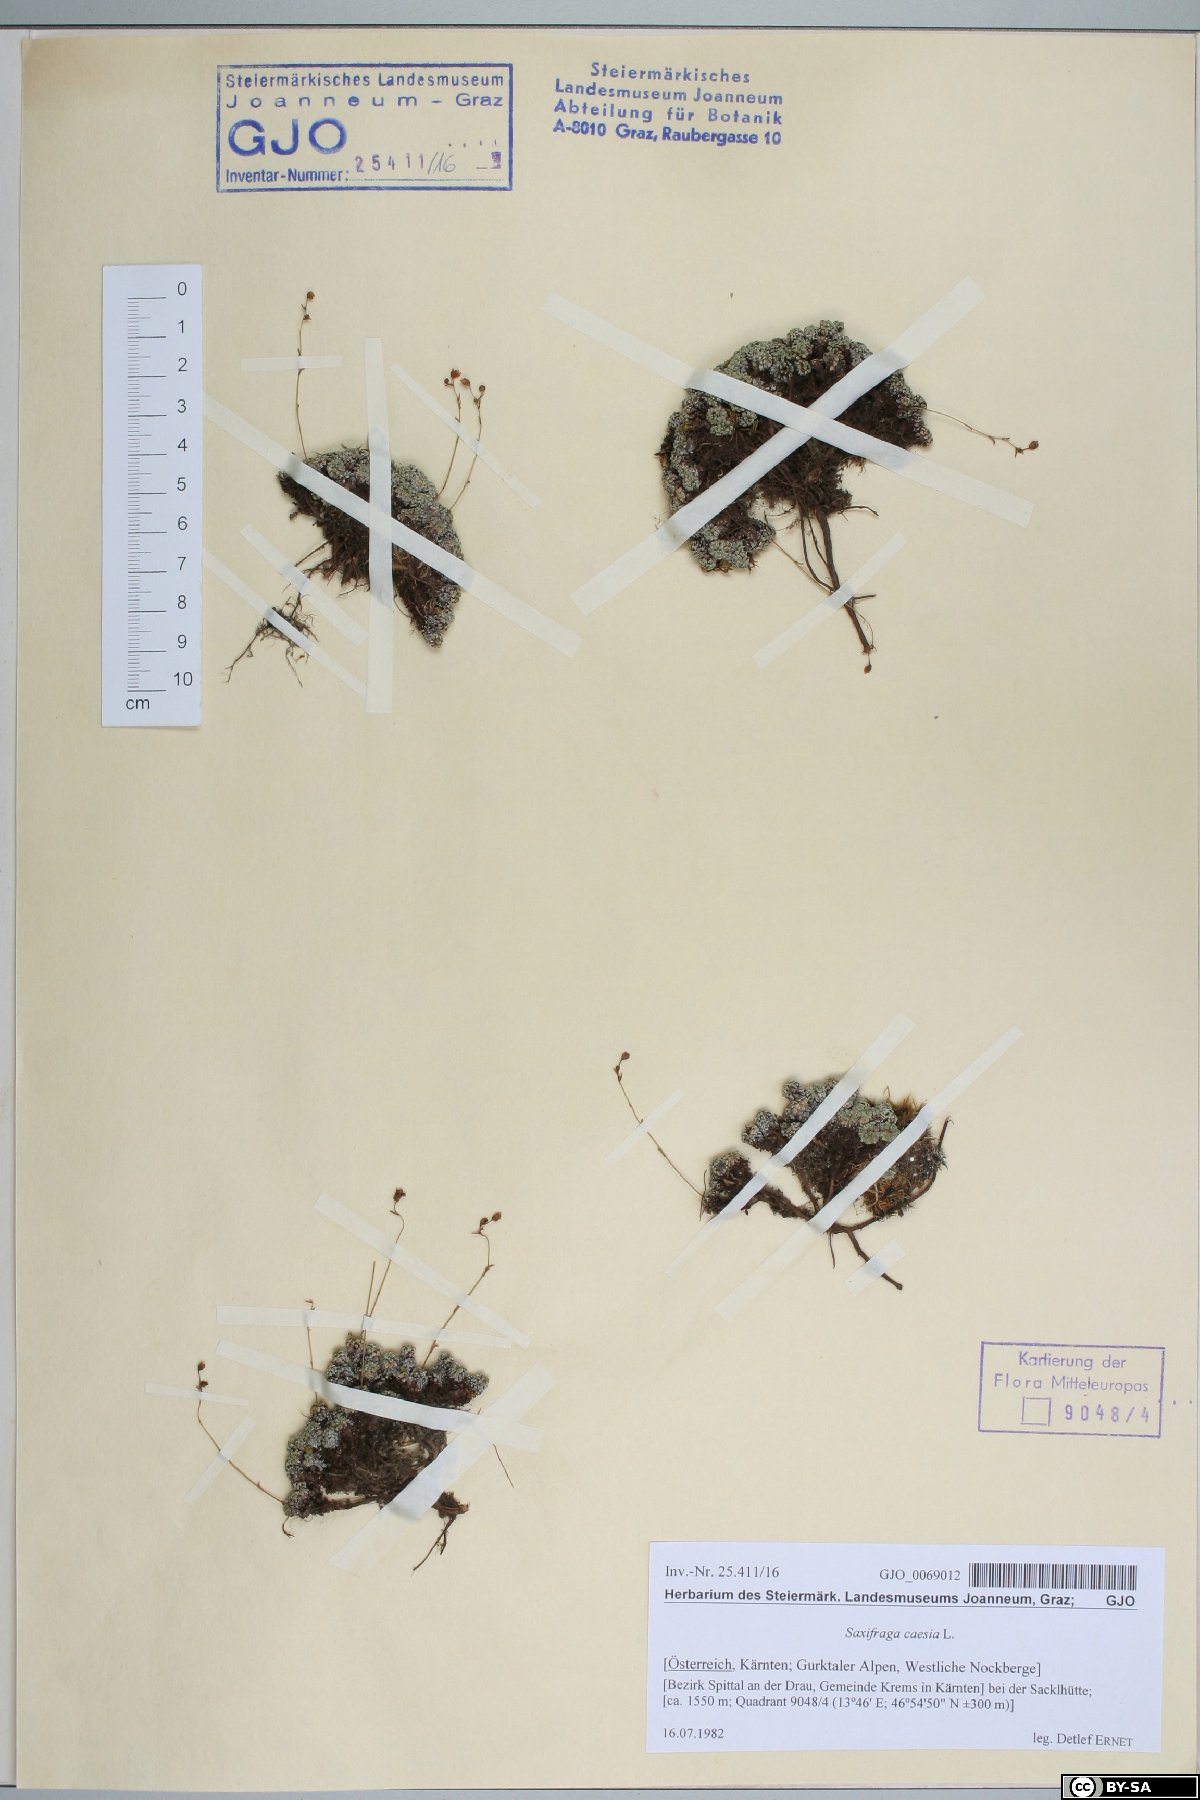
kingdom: Plantae
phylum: Tracheophyta
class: Magnoliopsida
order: Saxifragales
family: Saxifragaceae
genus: Saxifraga
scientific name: Saxifraga caesia
